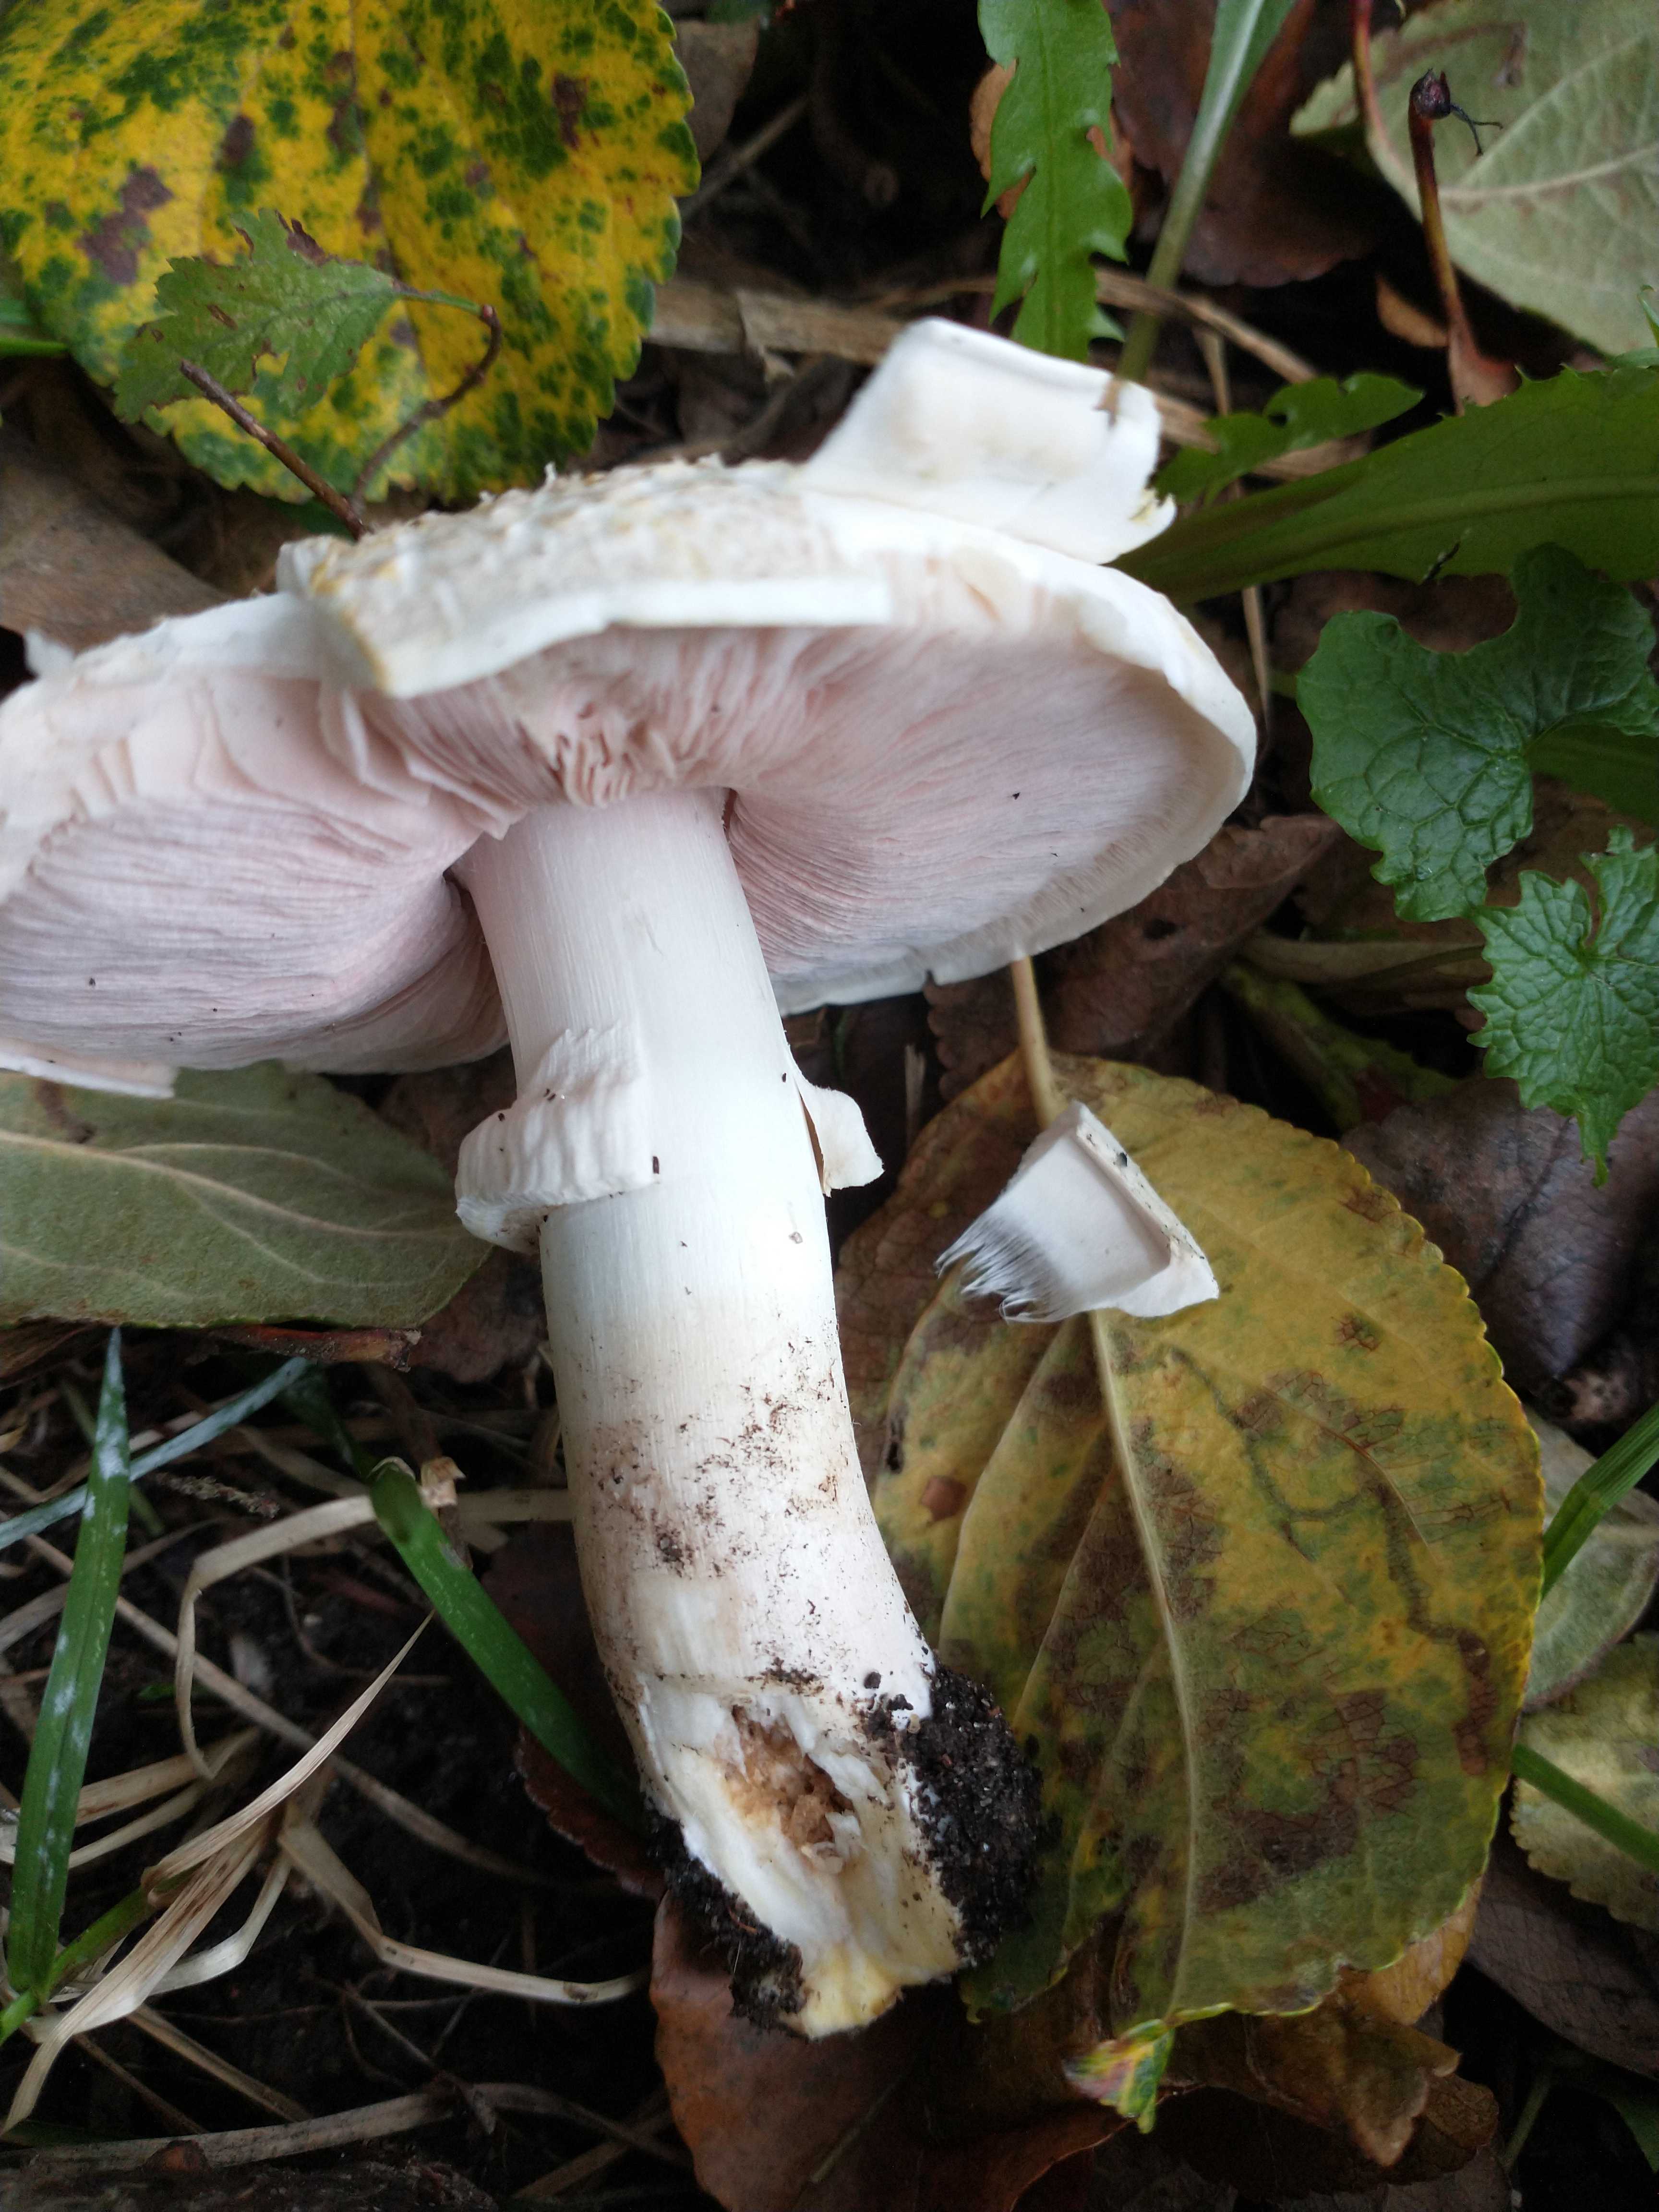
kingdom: Fungi
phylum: Basidiomycota
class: Agaricomycetes
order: Agaricales
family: Agaricaceae
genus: Agaricus
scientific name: Agaricus xanthodermus
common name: karbol-champignon
